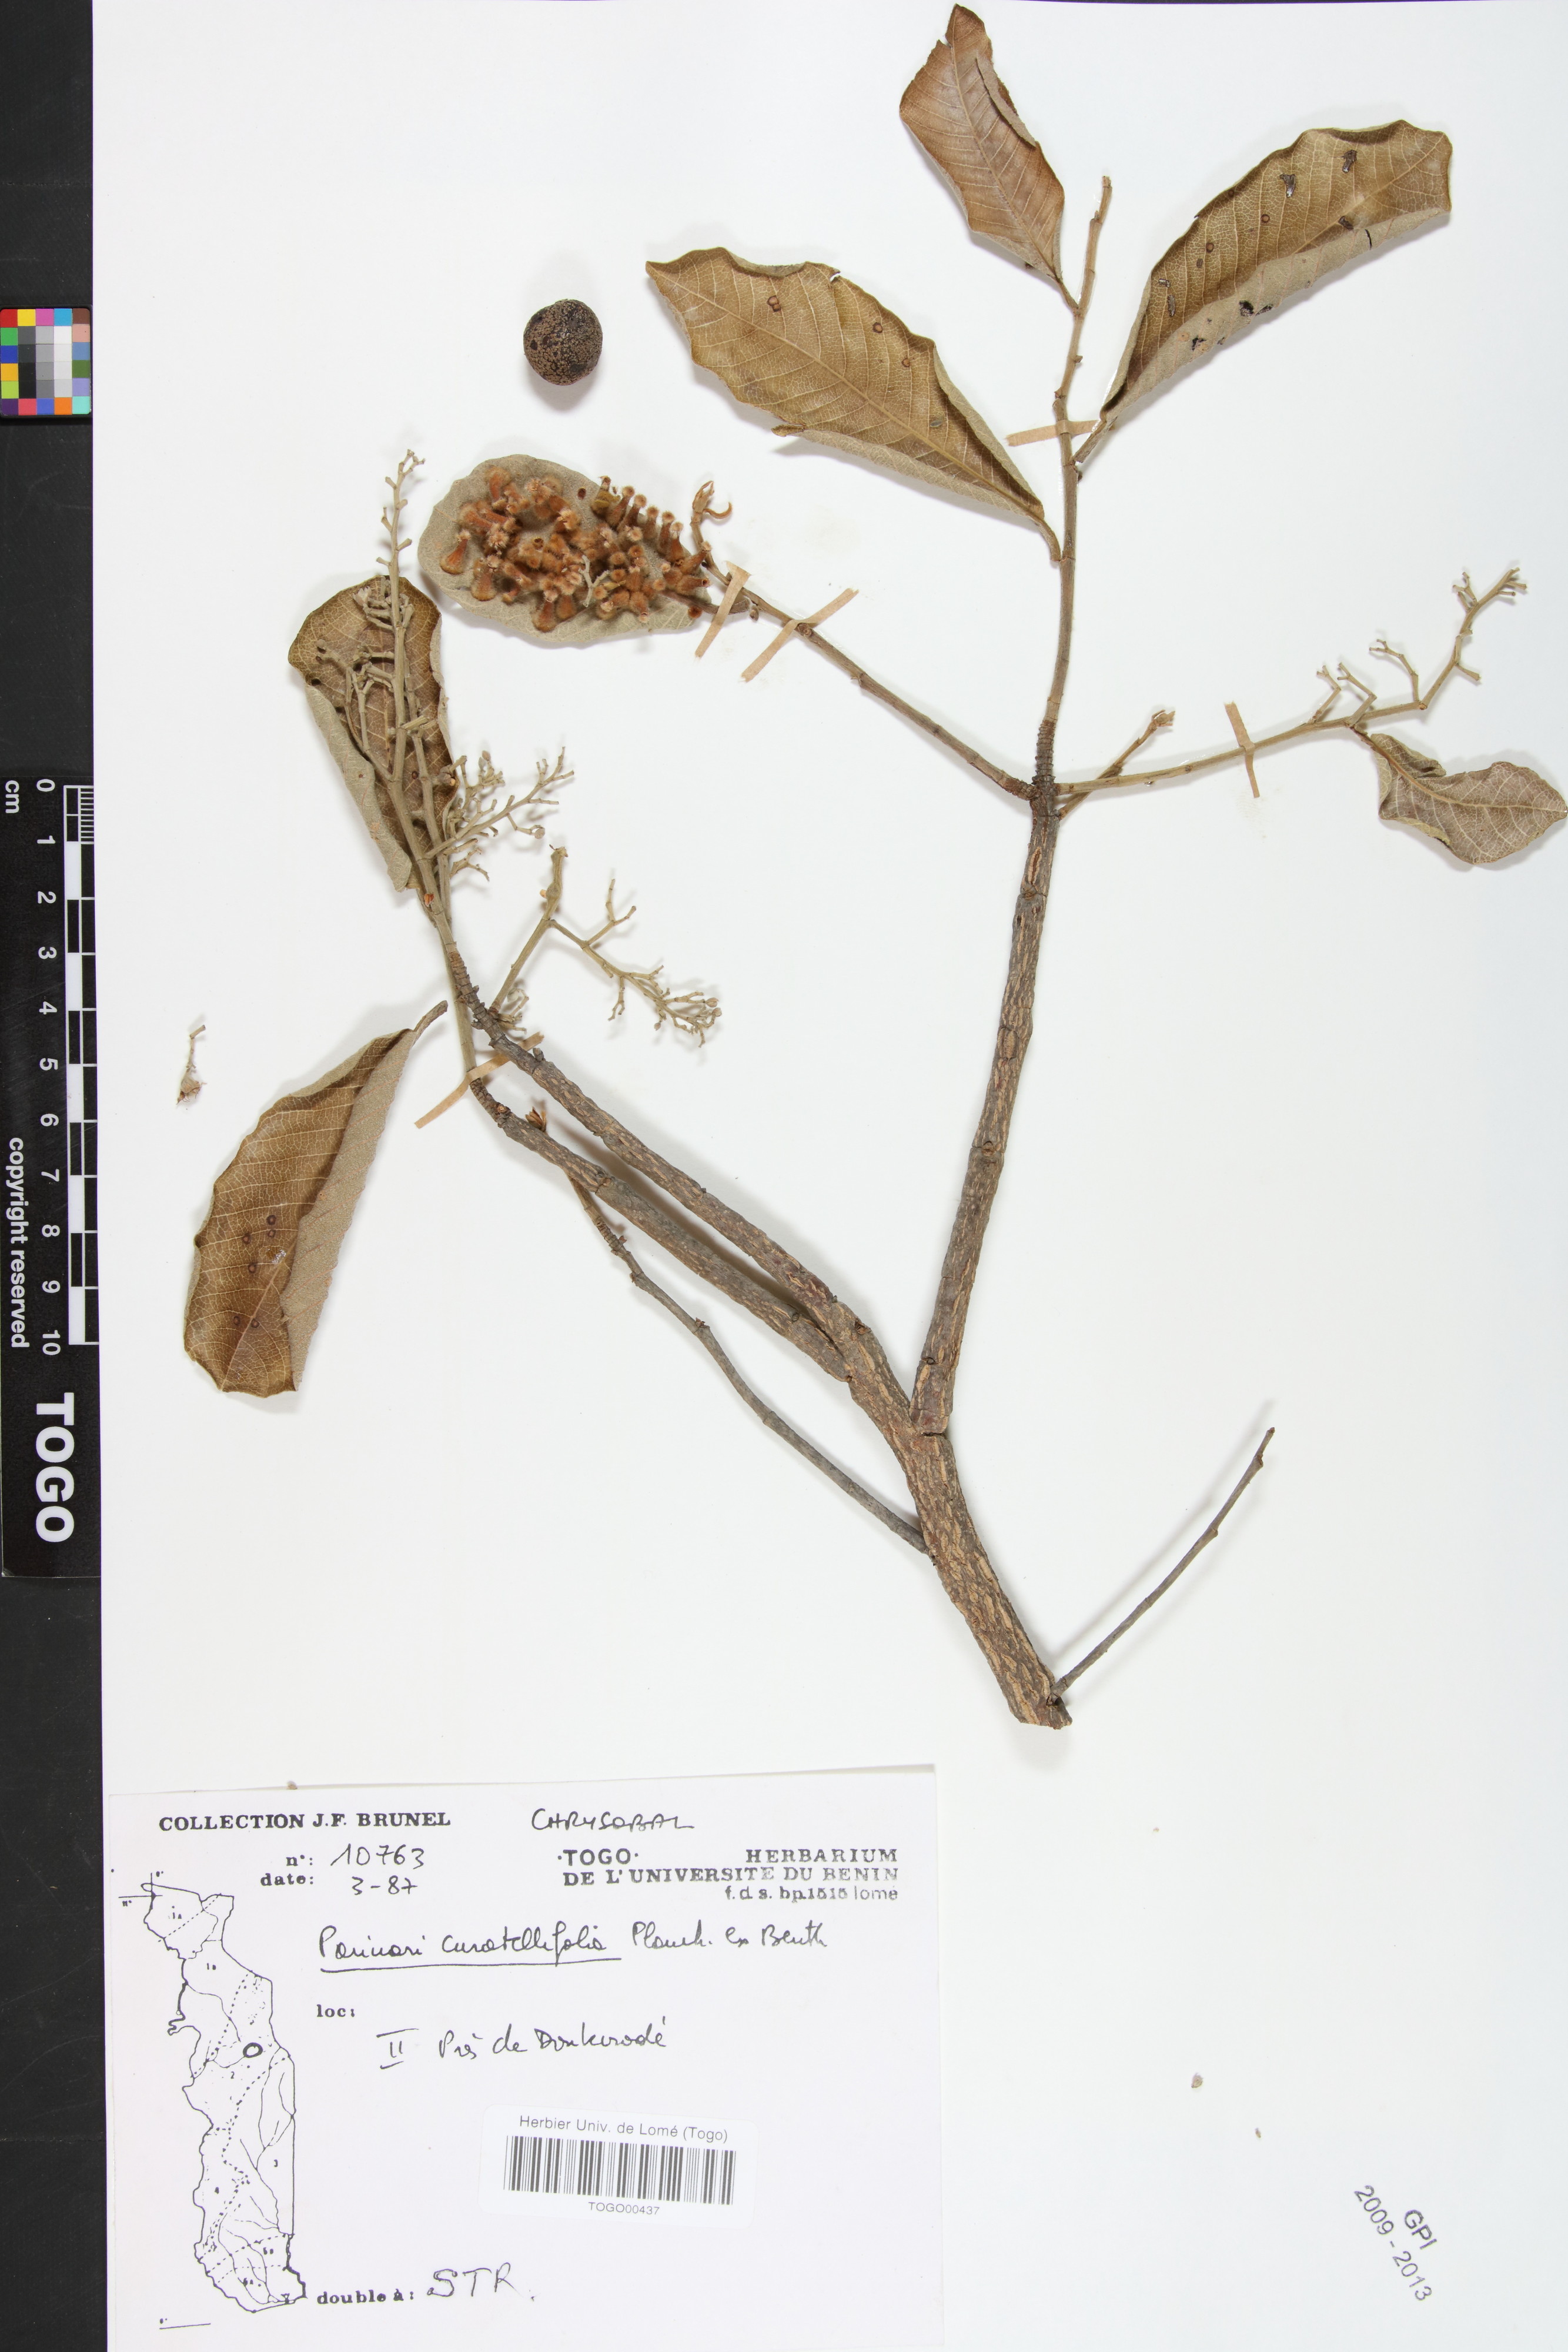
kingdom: Plantae
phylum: Tracheophyta
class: Magnoliopsida
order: Malpighiales
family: Chrysobalanaceae
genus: Parinari
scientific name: Parinari excelsa
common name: Guinea-plum
